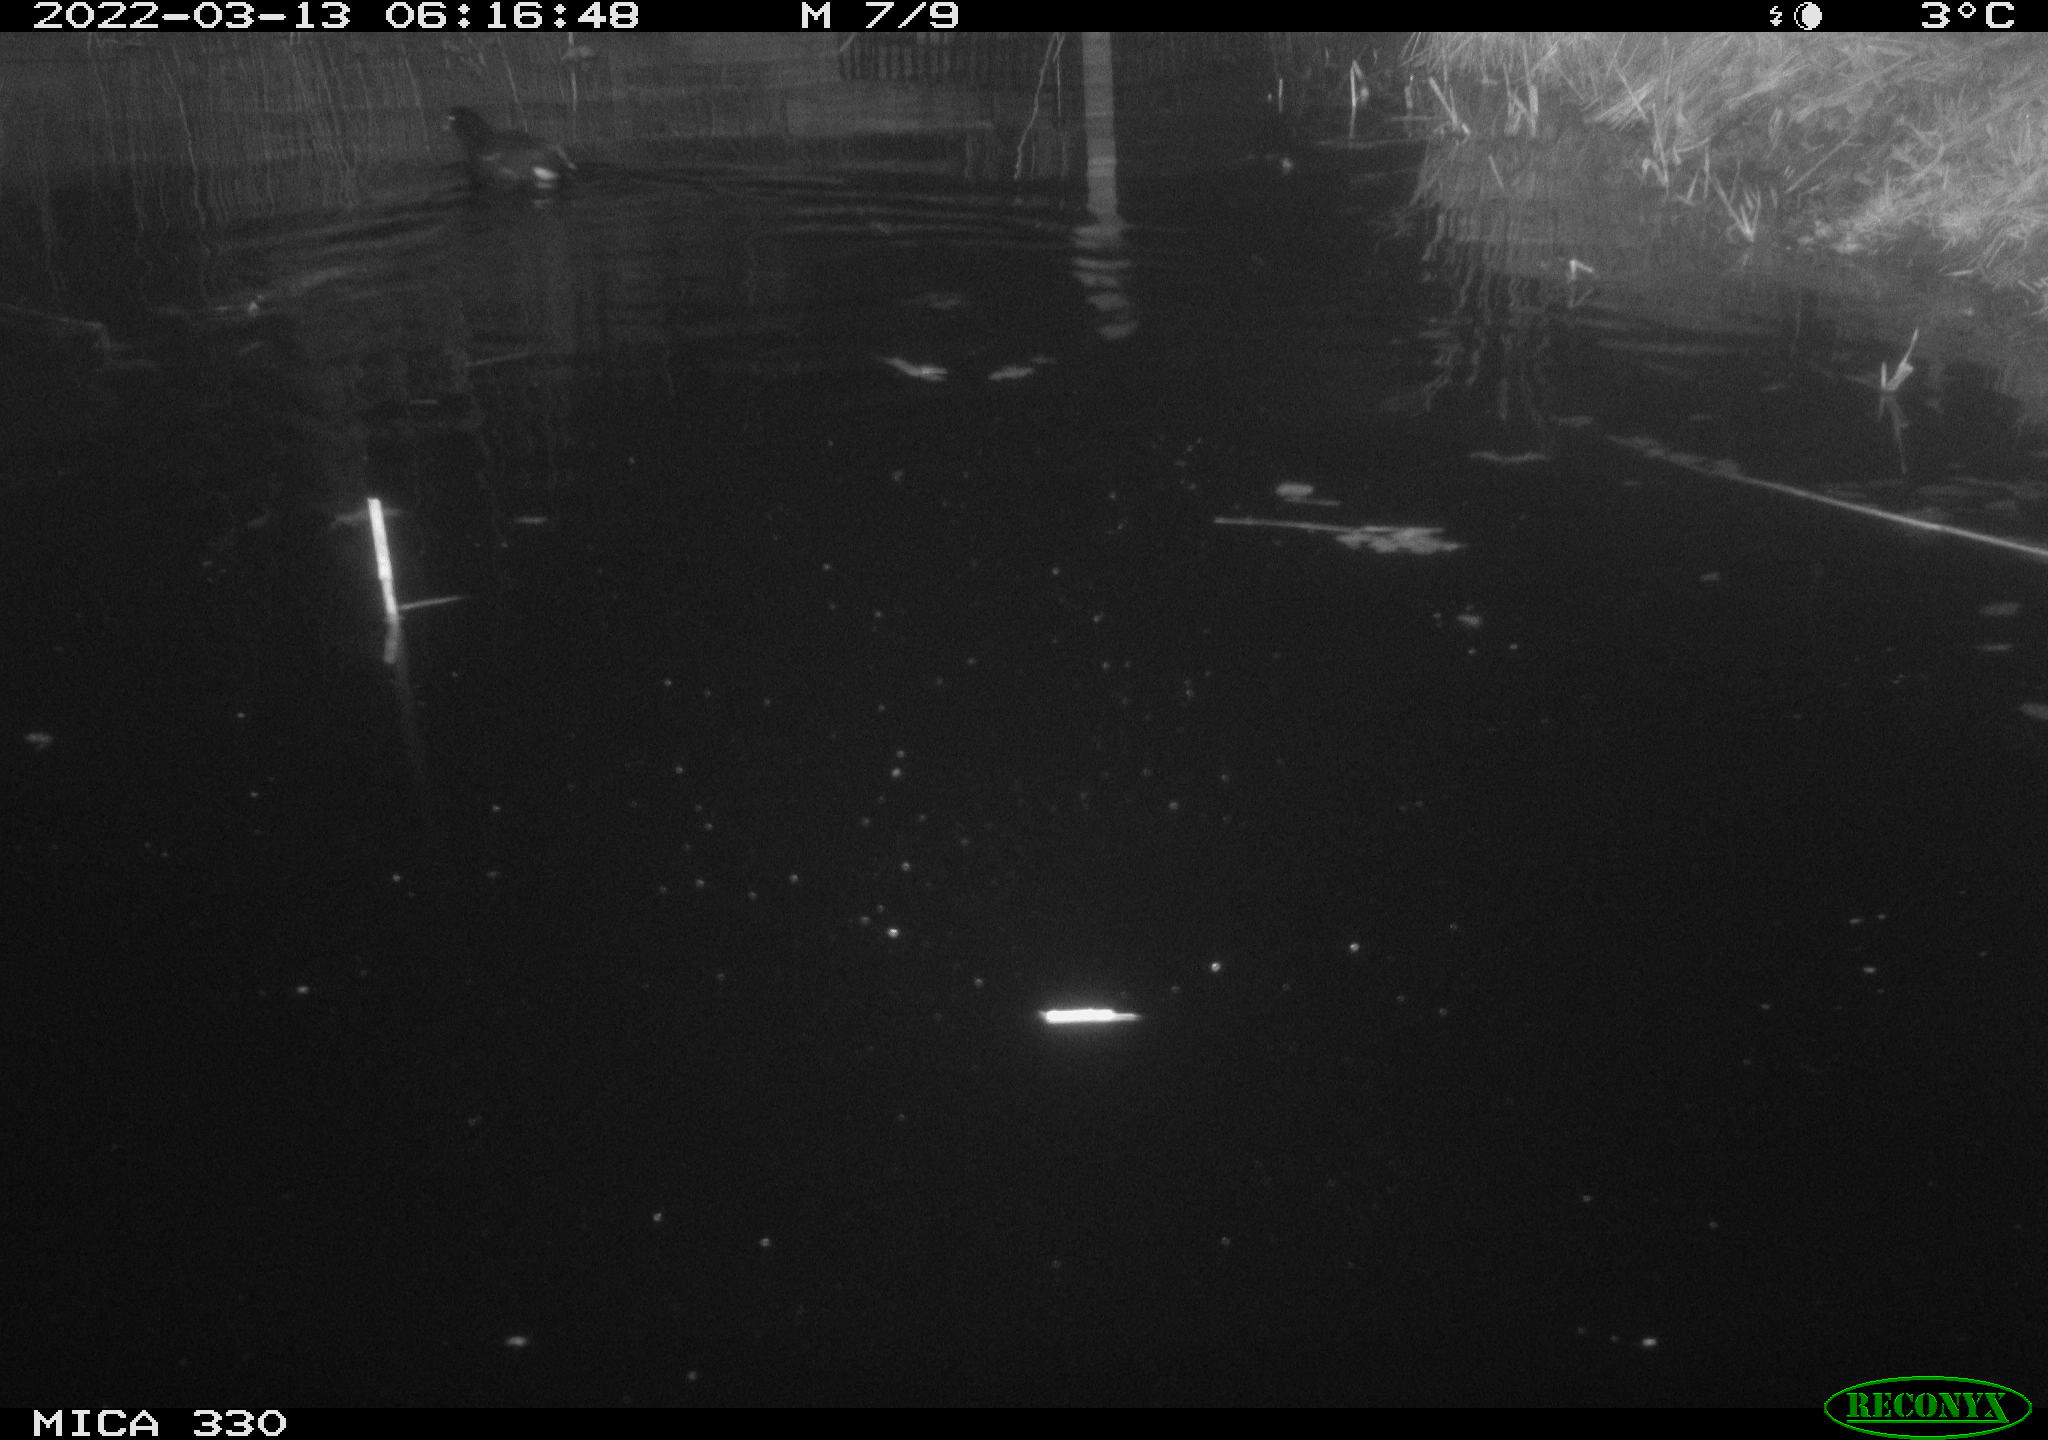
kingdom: Animalia
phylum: Chordata
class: Aves
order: Gruiformes
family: Rallidae
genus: Gallinula
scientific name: Gallinula chloropus
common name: Common moorhen
